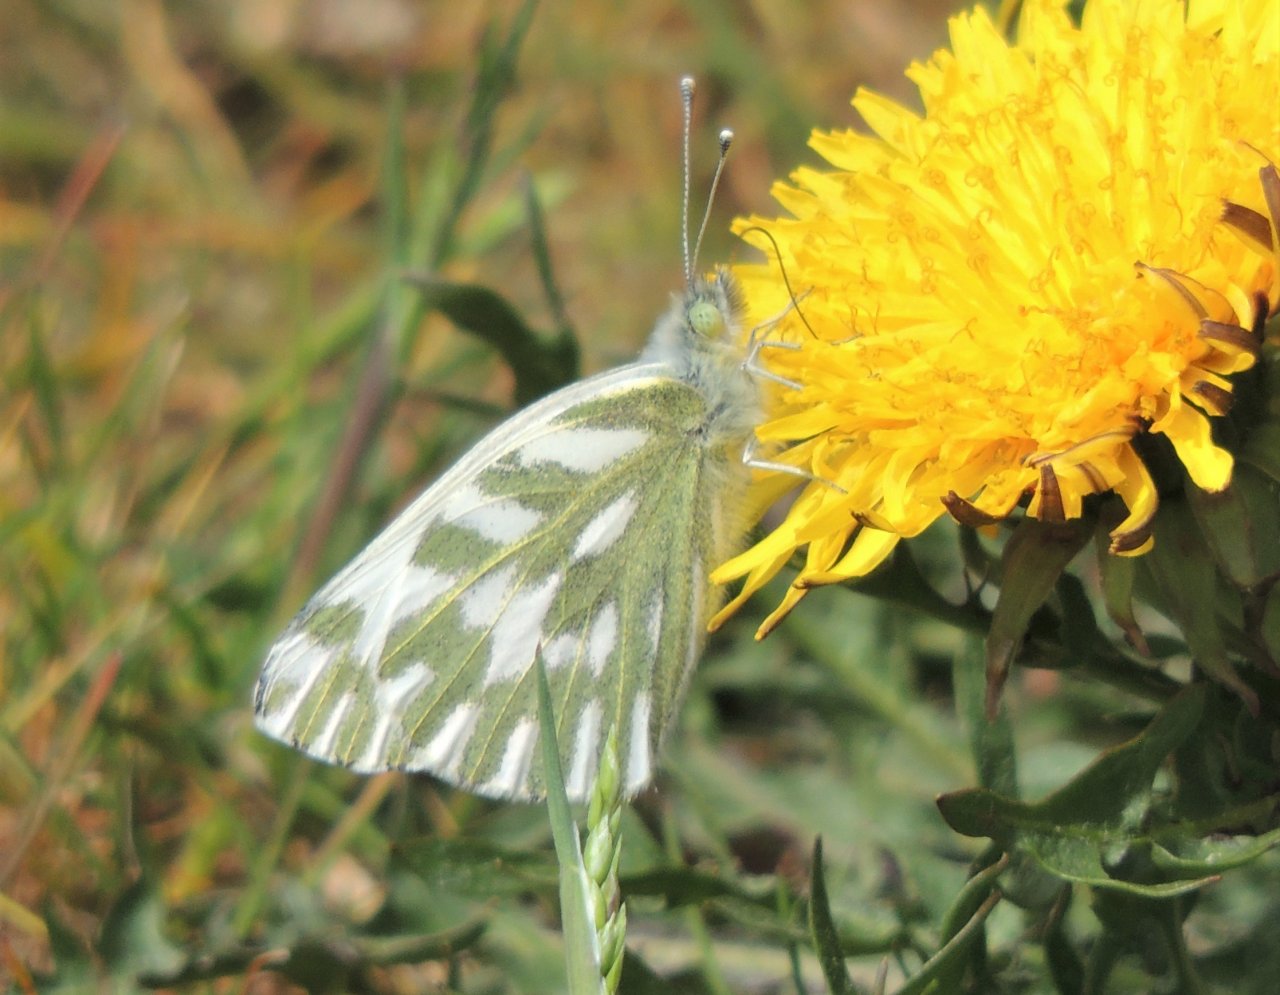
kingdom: Animalia
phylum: Arthropoda
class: Insecta
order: Lepidoptera
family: Pieridae
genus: Pontia
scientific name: Pontia sisymbrii
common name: Spring White
